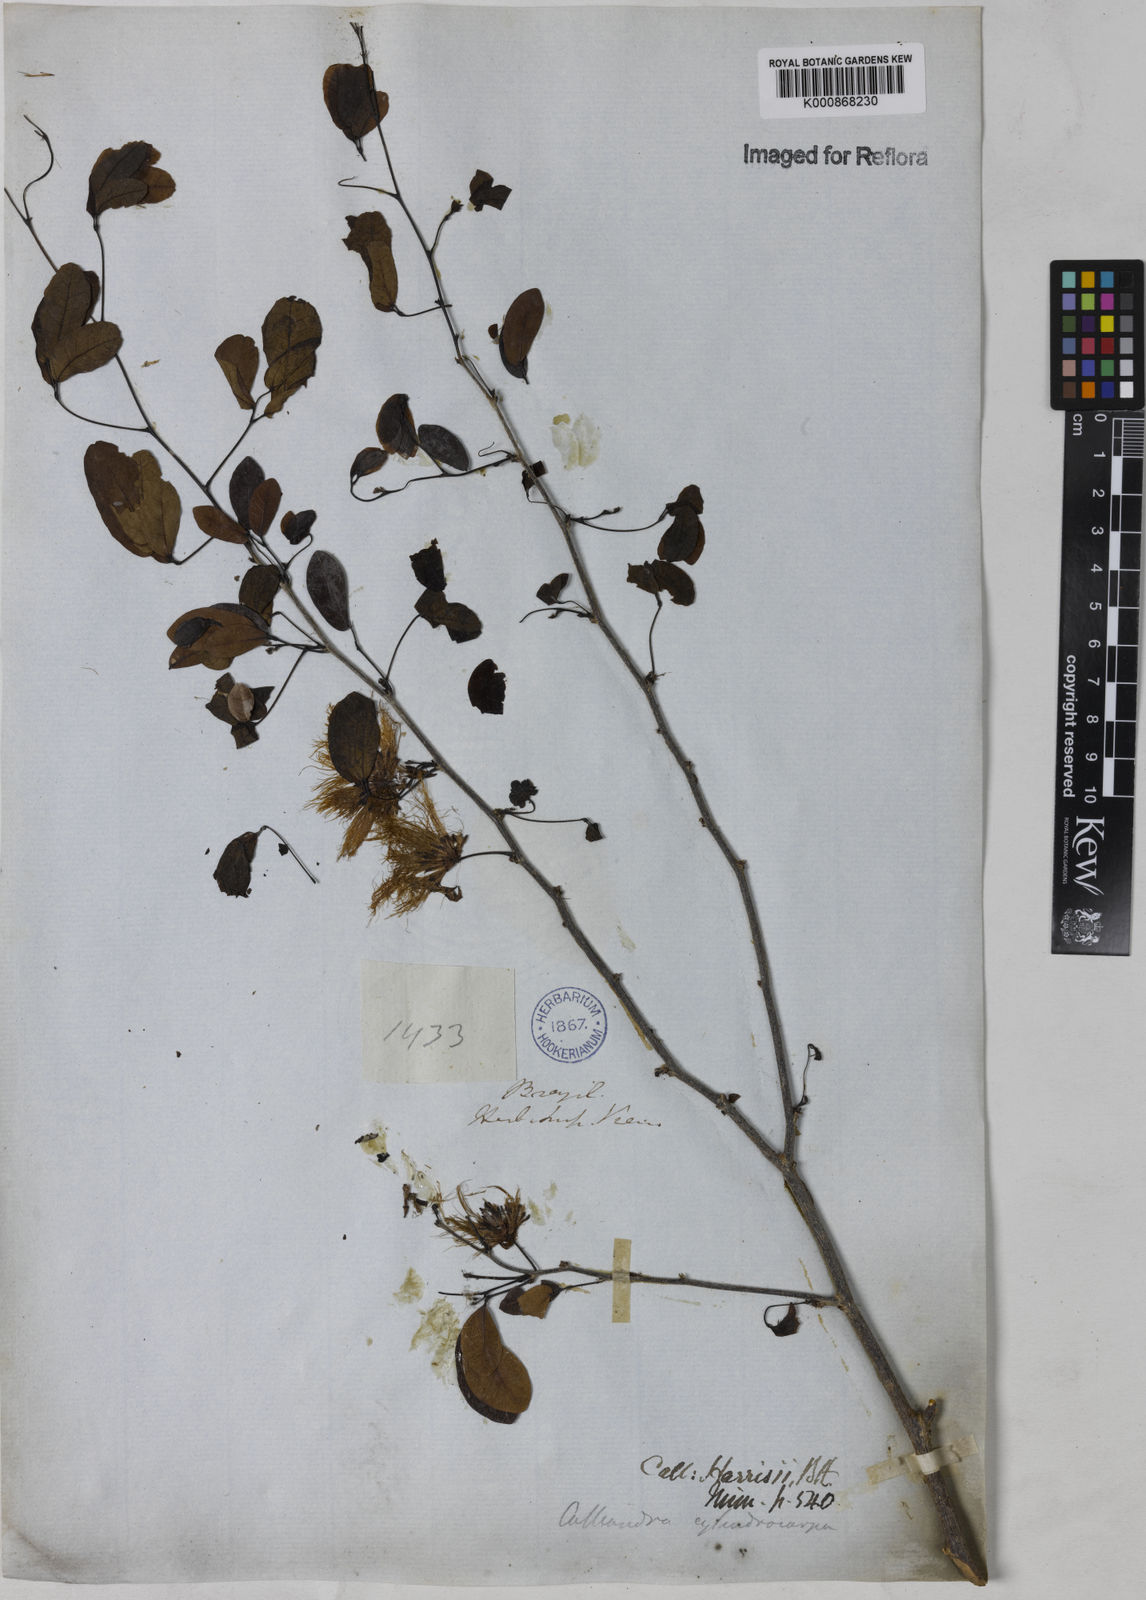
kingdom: Plantae
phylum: Tracheophyta
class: Magnoliopsida
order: Fabales
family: Fabaceae
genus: Calliandra
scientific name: Calliandra harrisii
